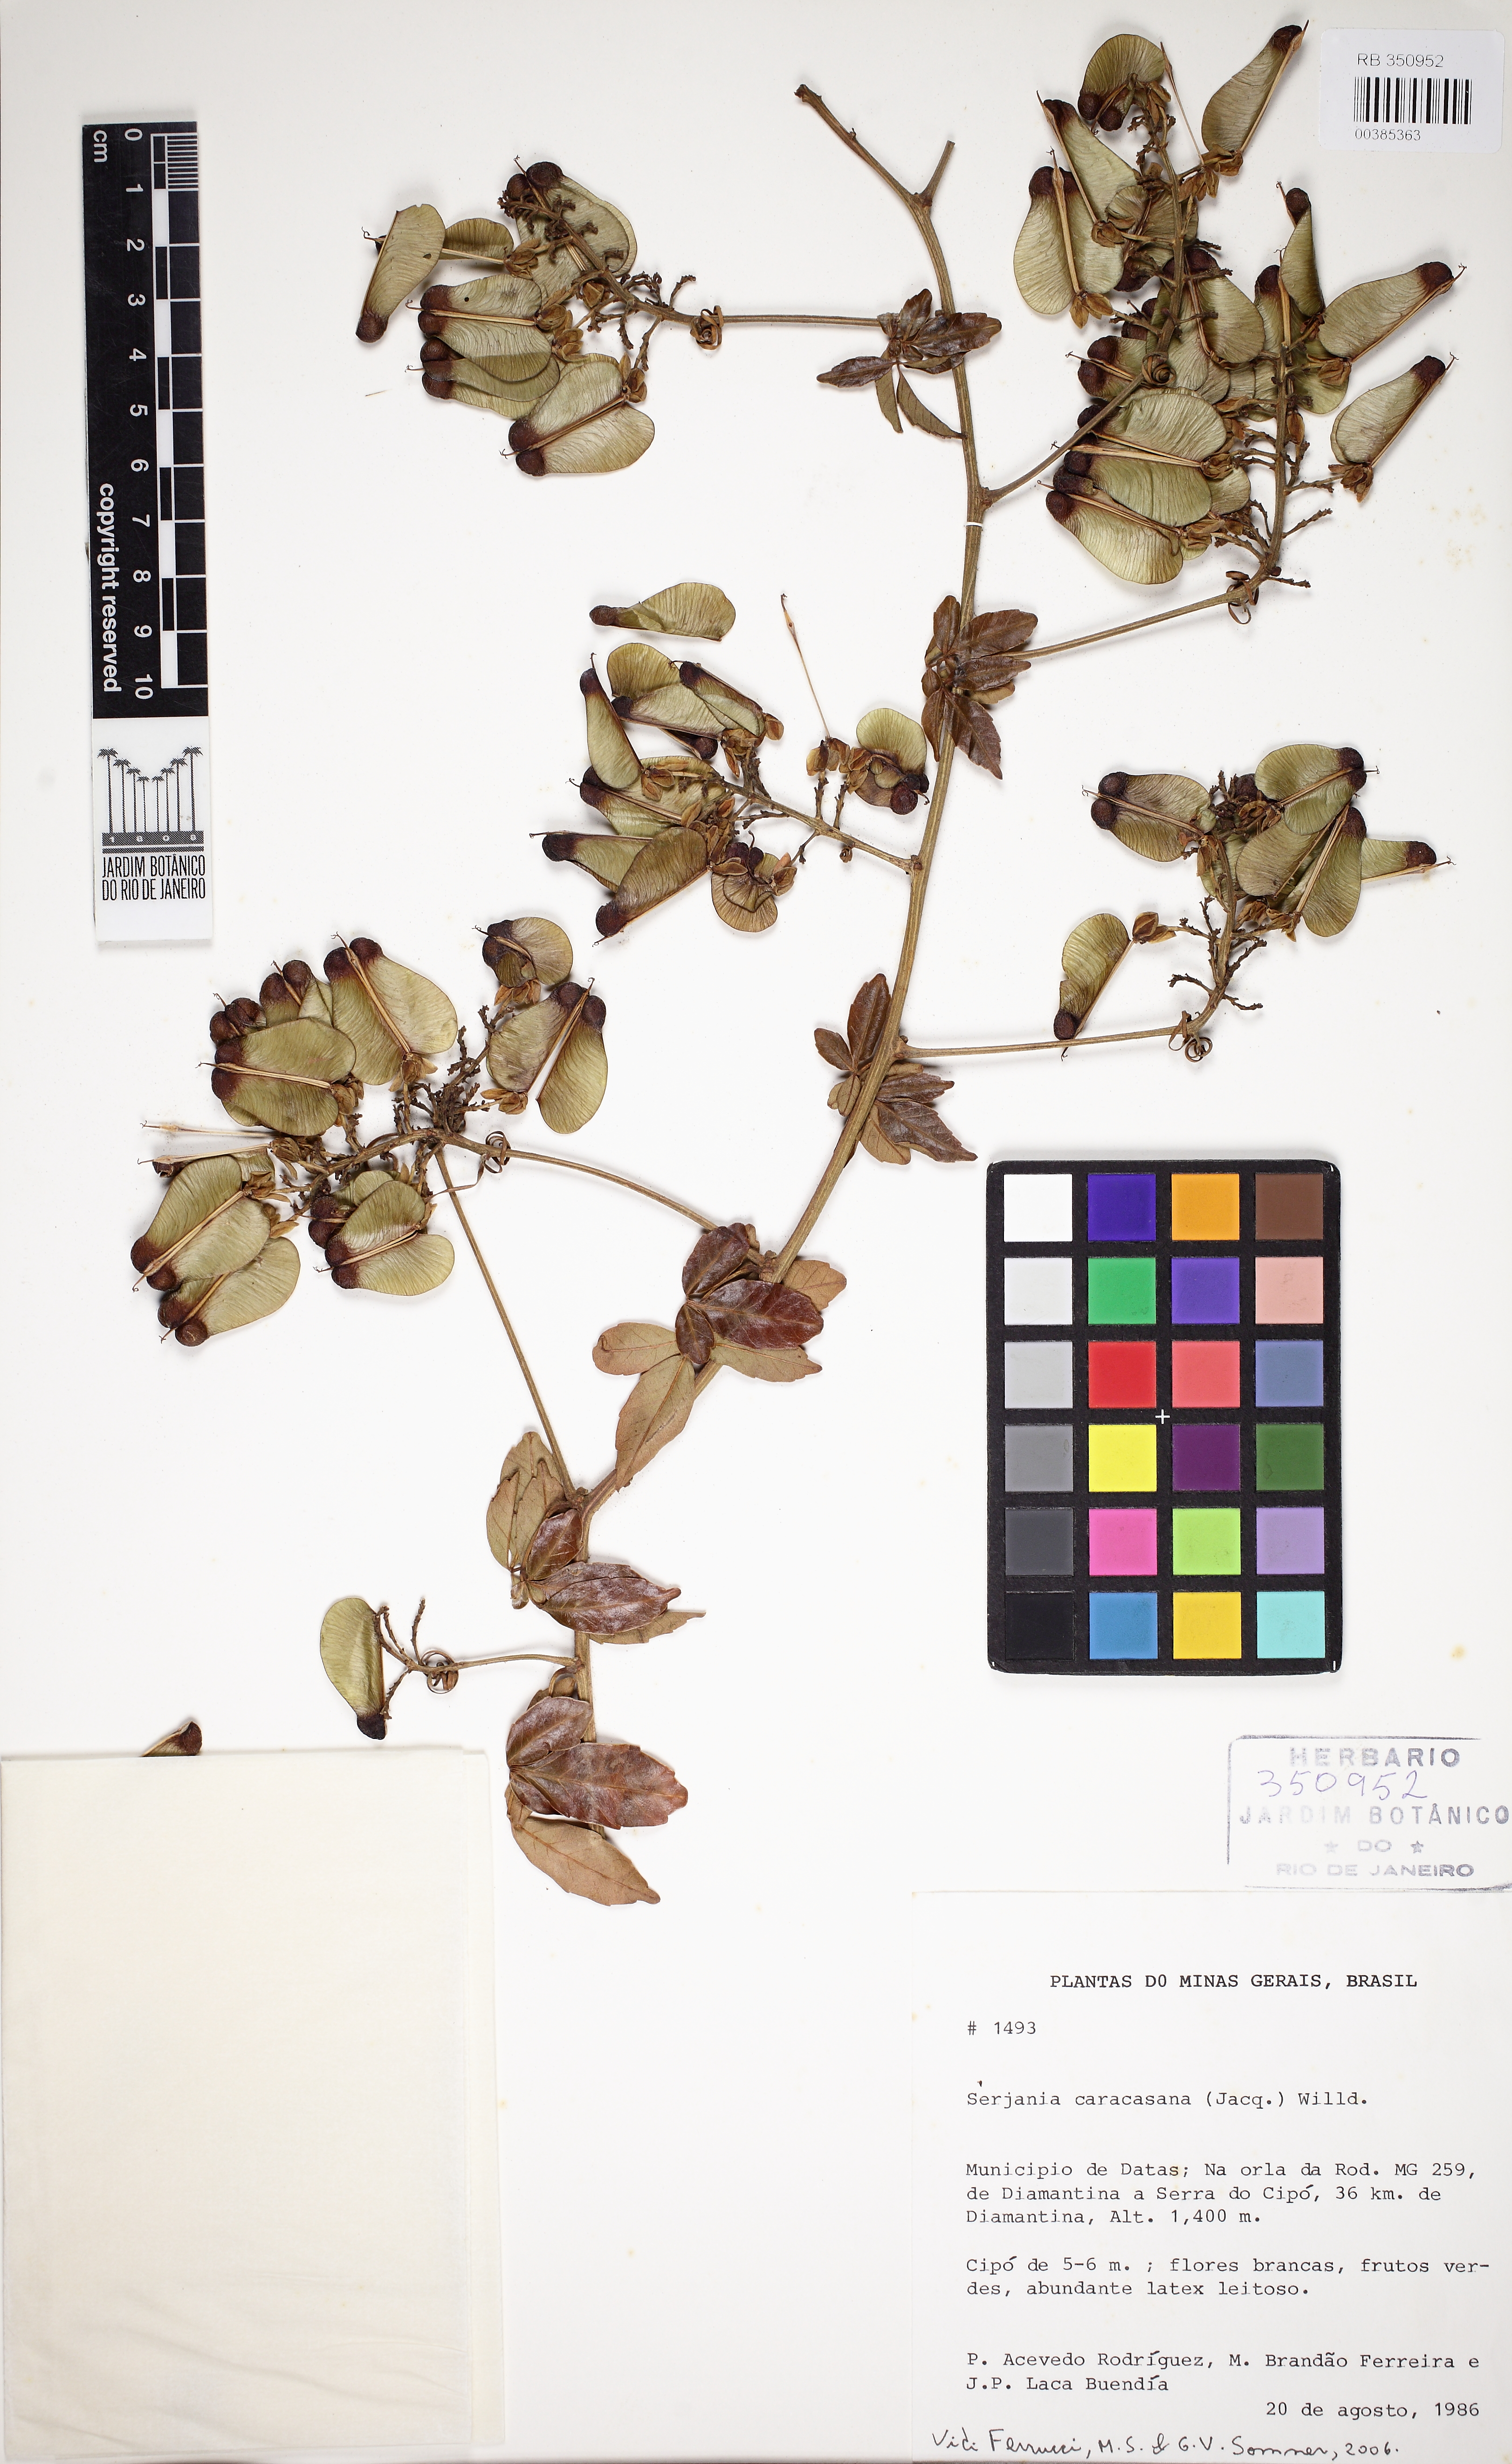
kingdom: Plantae
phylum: Tracheophyta
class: Magnoliopsida
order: Sapindales
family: Sapindaceae
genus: Serjania
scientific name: Serjania caracasana
